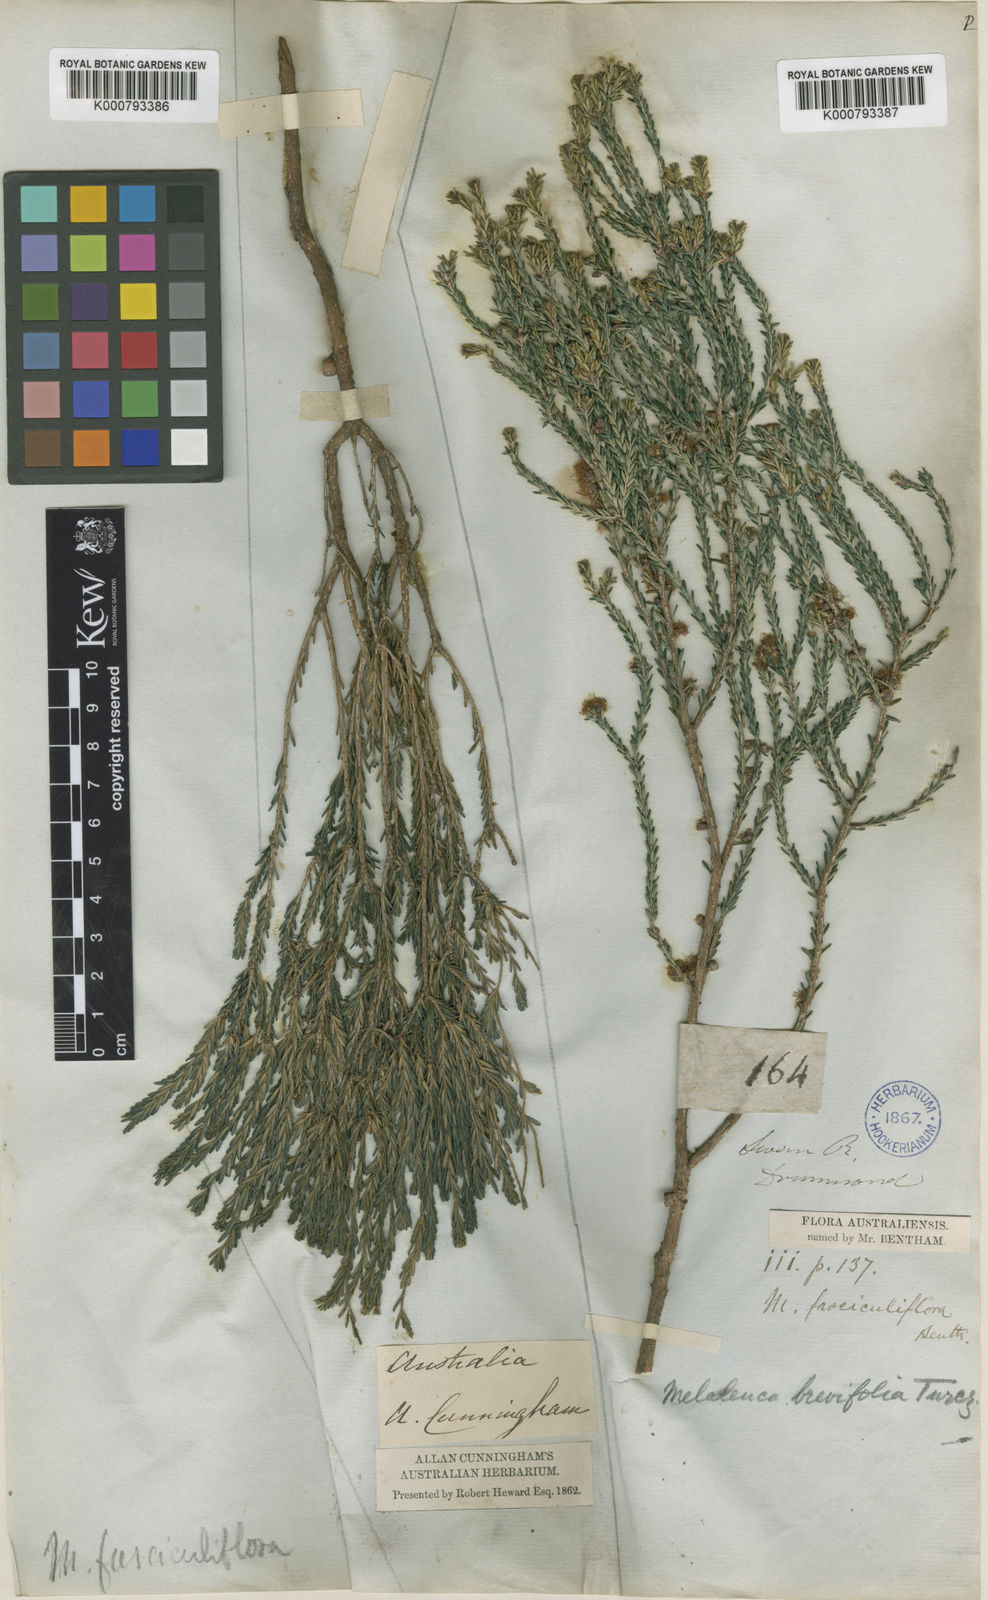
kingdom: Plantae
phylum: Tracheophyta
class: Magnoliopsida
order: Myrtales
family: Myrtaceae
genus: Melaleuca
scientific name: Melaleuca brevifolia
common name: Mallee honey myrtle
